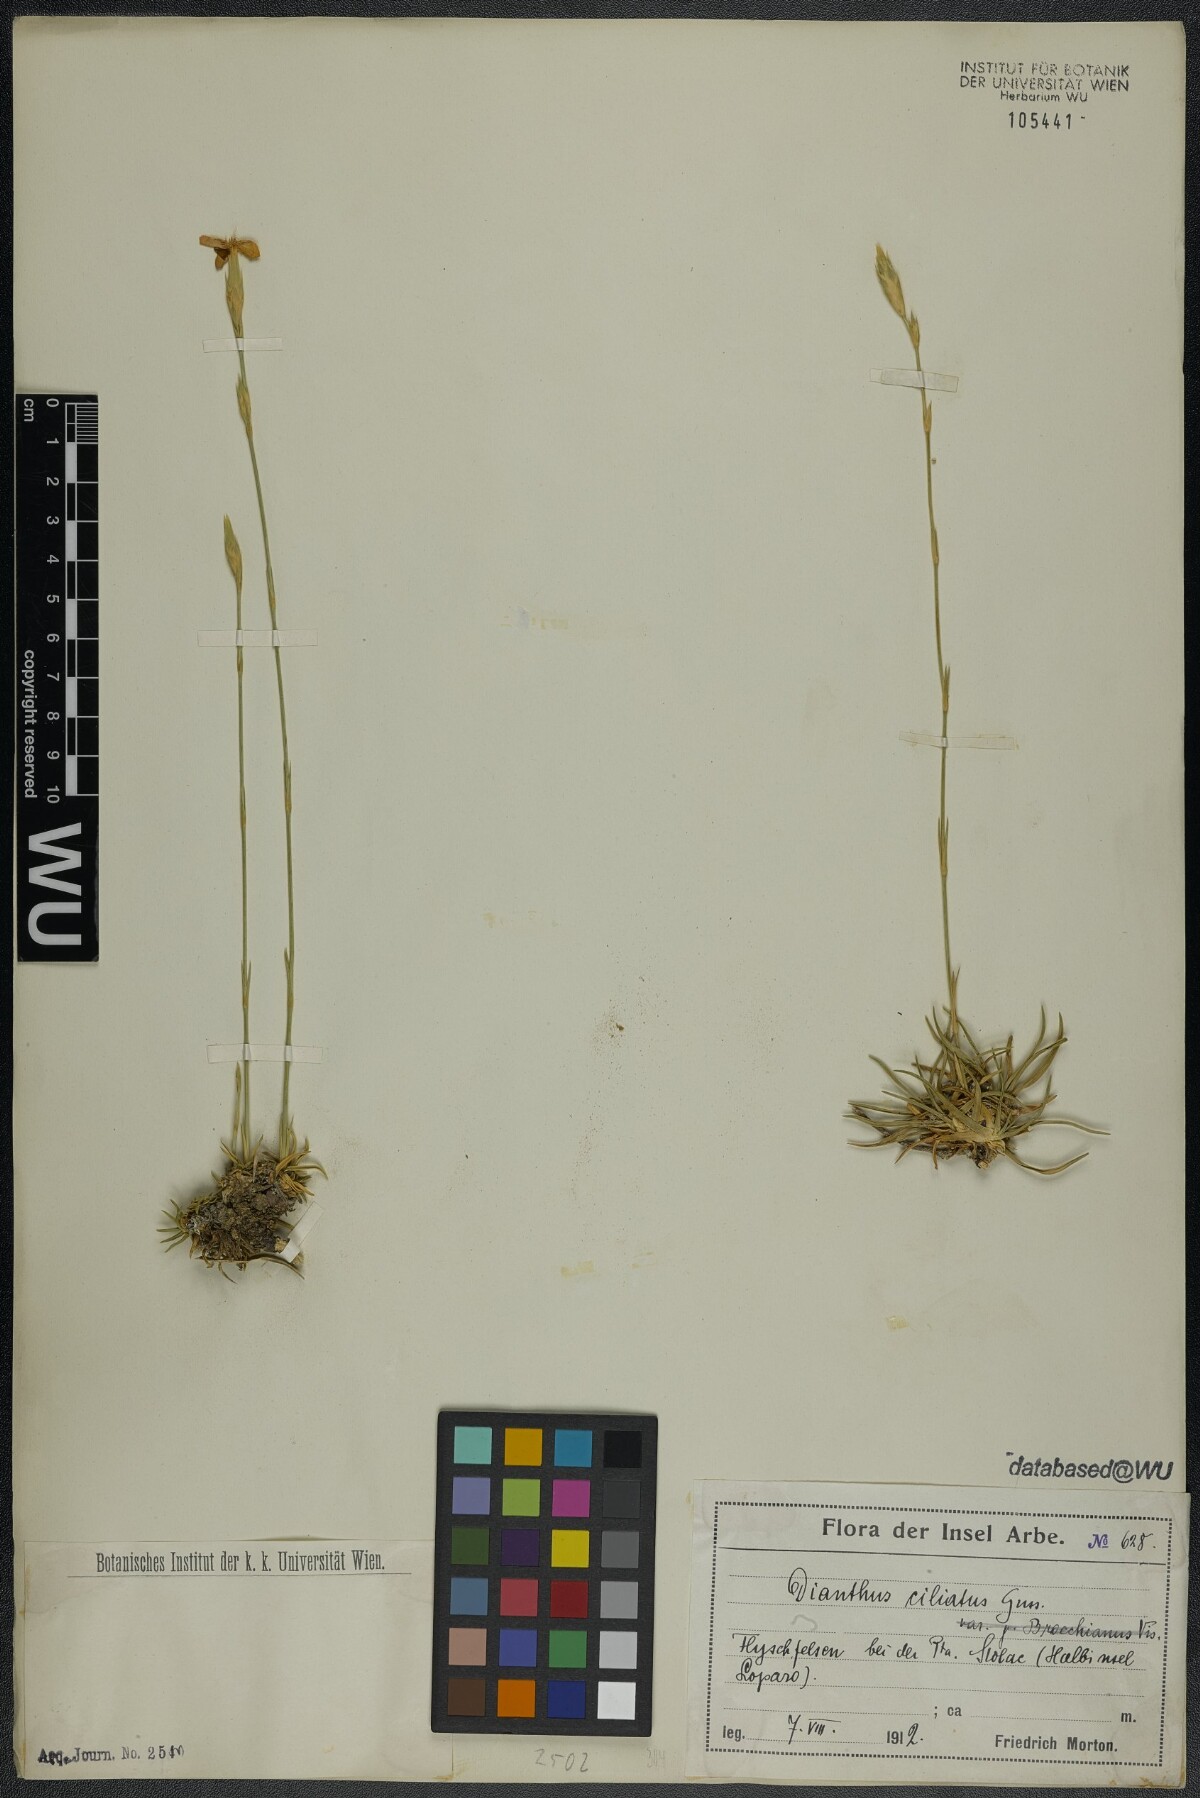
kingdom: Plantae
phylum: Tracheophyta
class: Magnoliopsida
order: Caryophyllales
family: Caryophyllaceae
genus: Dianthus
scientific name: Dianthus ciliatus
